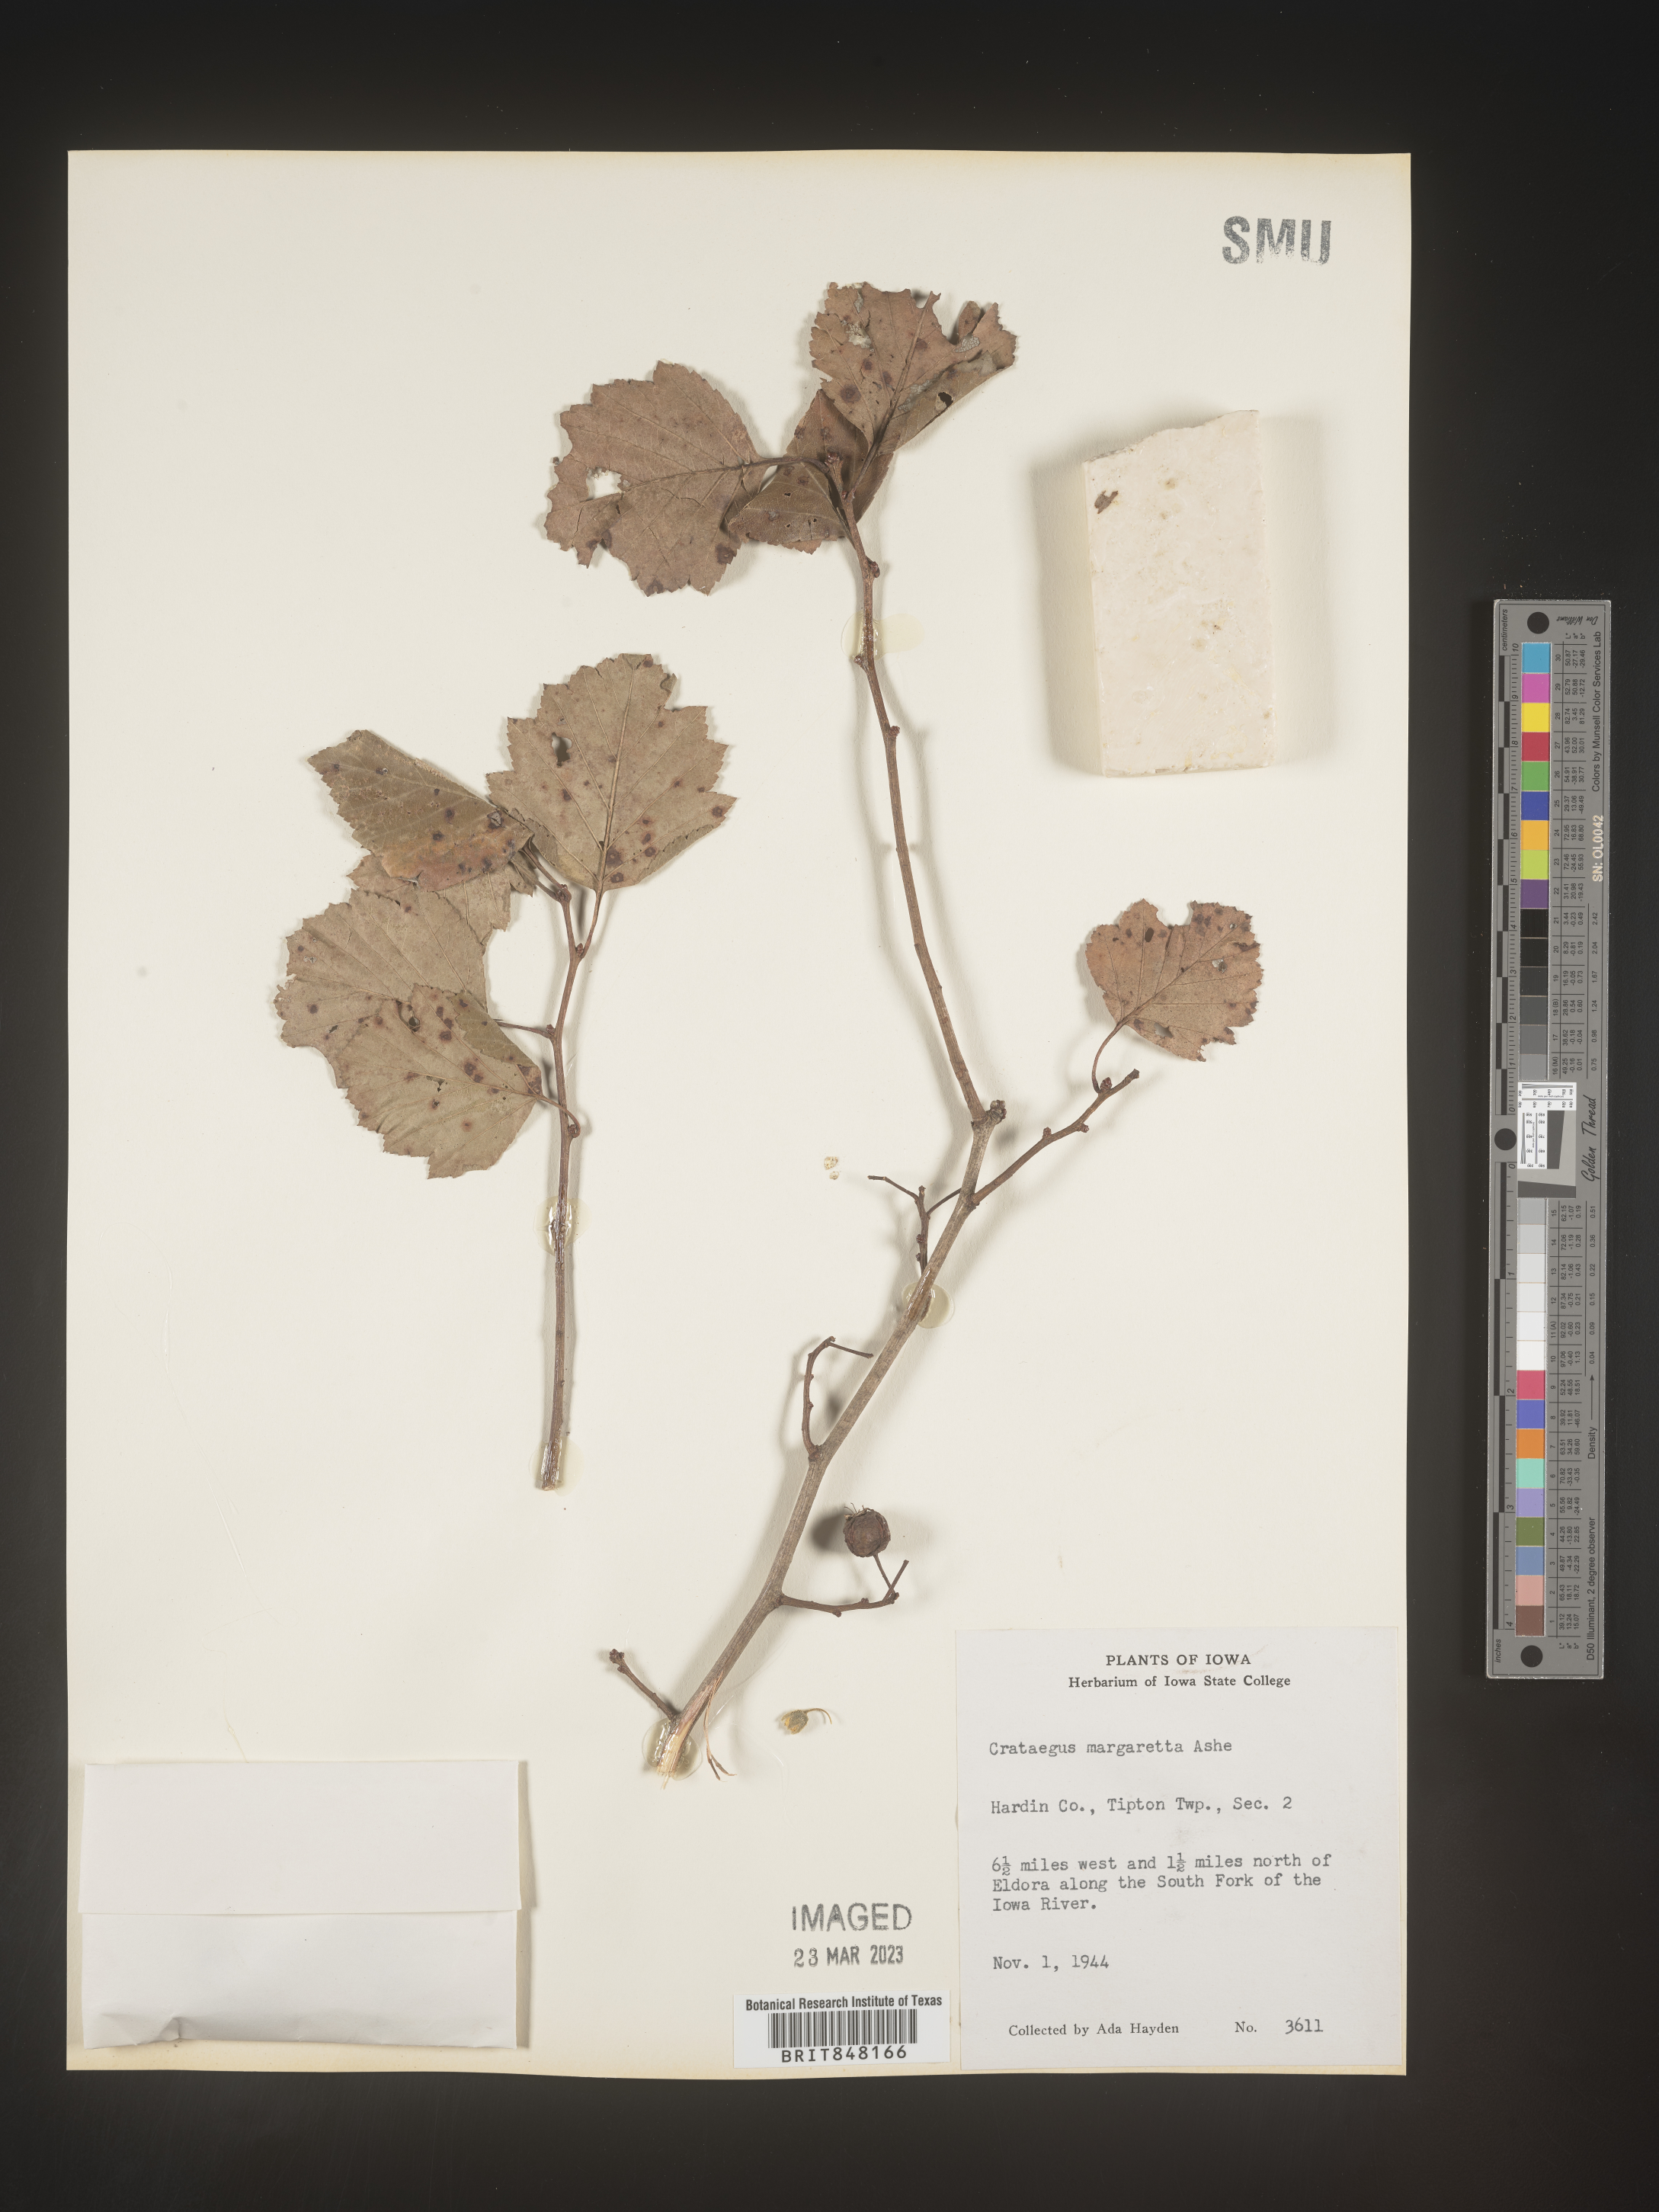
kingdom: Plantae
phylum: Tracheophyta
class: Magnoliopsida
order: Rosales
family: Rosaceae
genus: Crataegus
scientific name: Crataegus margaretta
